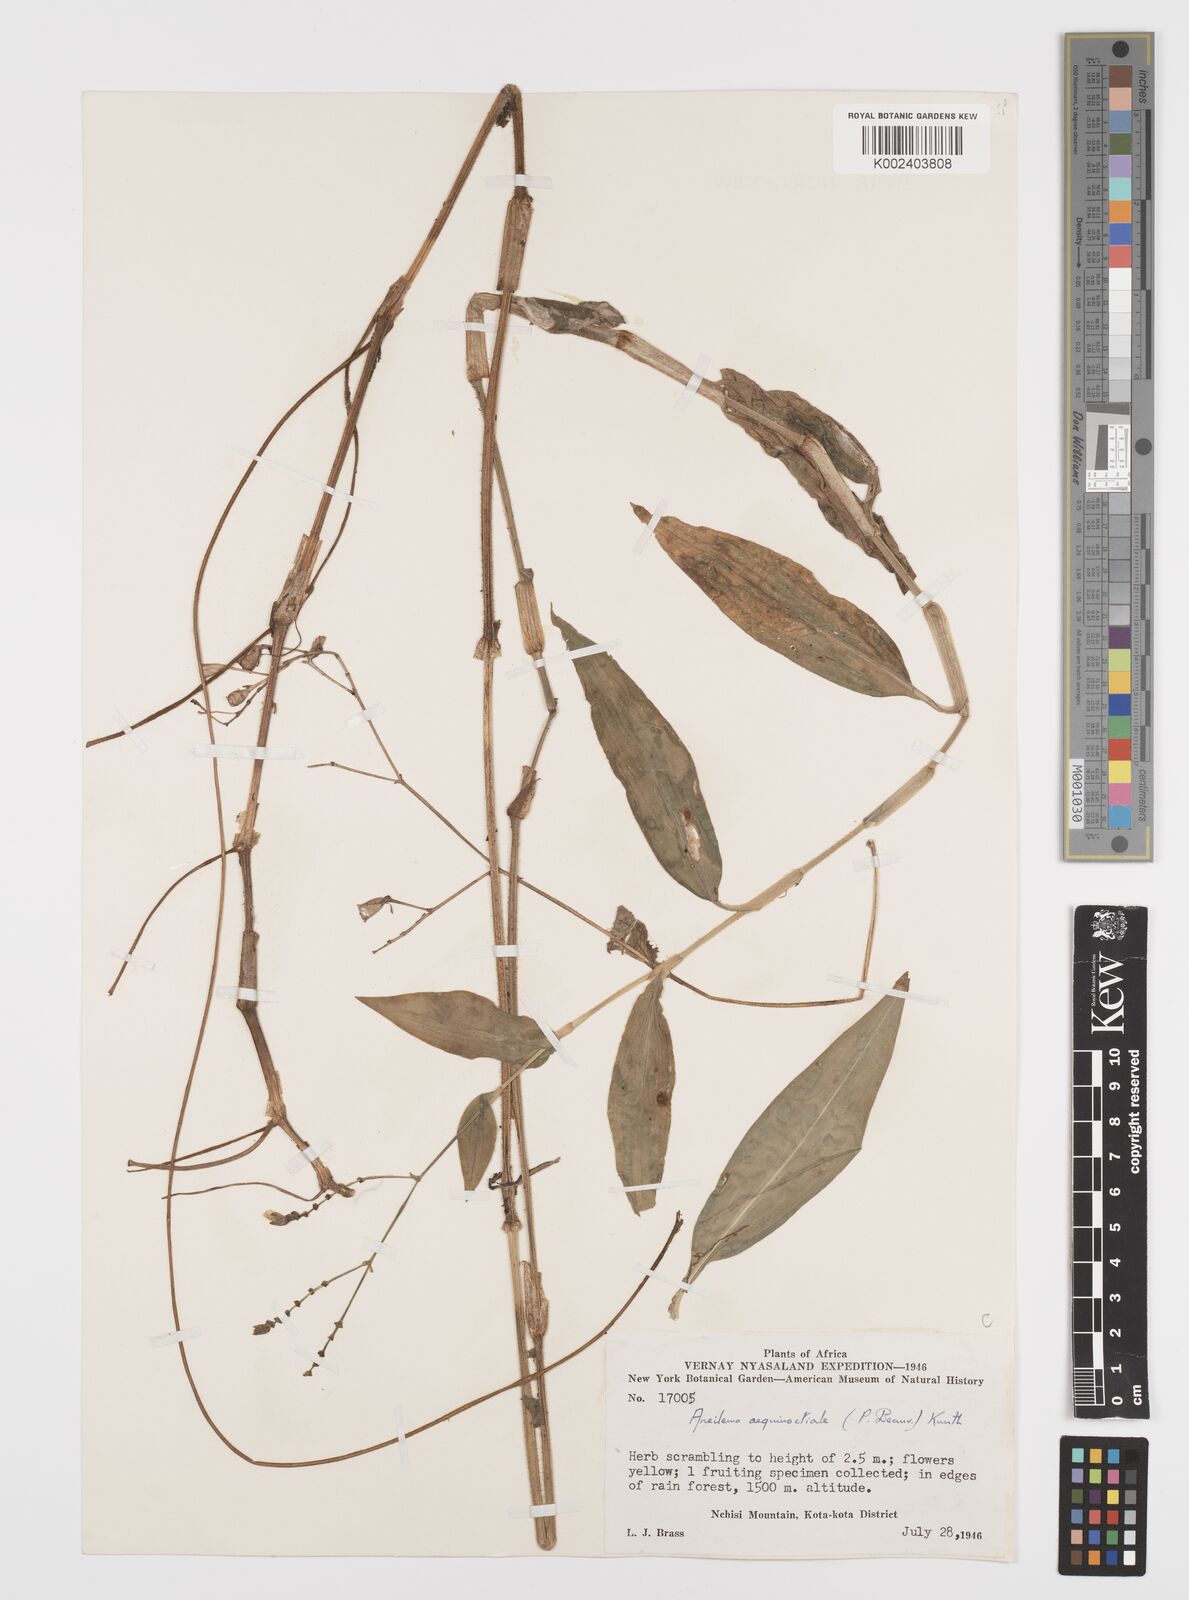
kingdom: Plantae
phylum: Tracheophyta
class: Liliopsida
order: Commelinales
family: Commelinaceae
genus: Aneilema
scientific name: Aneilema aequinoctiale
